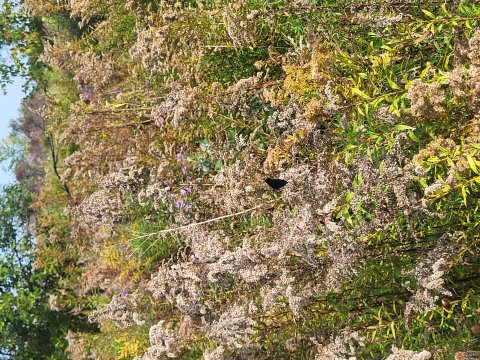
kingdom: Animalia
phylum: Arthropoda
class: Insecta
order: Lepidoptera
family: Nymphalidae
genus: Aglais
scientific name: Aglais io
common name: European Peacock
